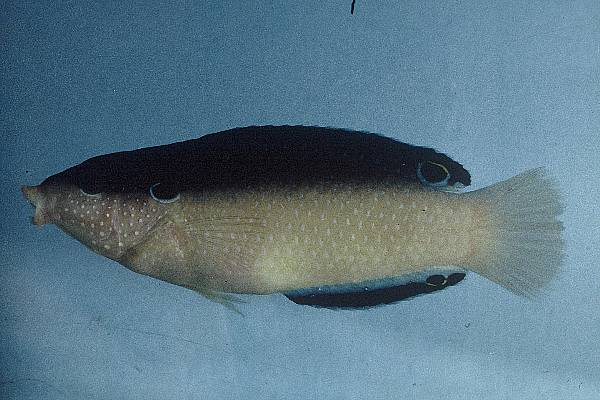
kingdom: Animalia
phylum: Chordata
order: Perciformes
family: Labridae
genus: Anampses
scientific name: Anampses neoguinaicus
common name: New guinea wrasse
